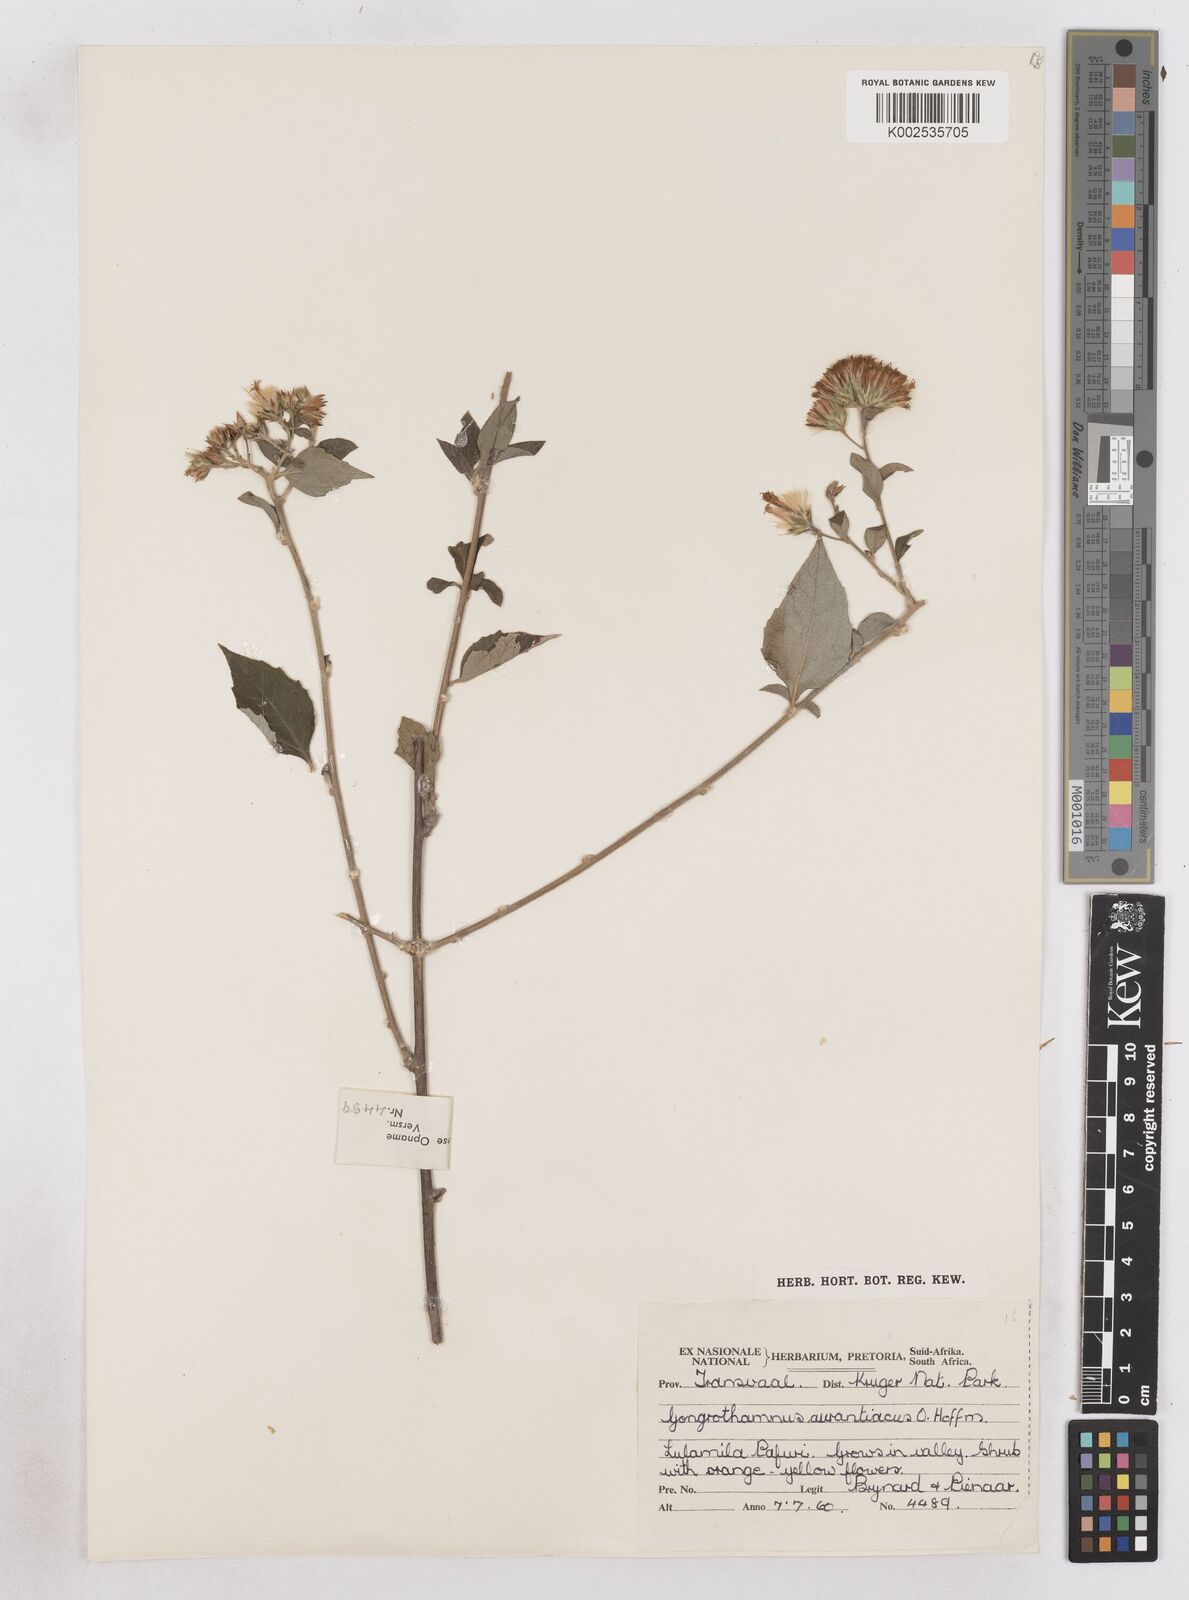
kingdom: Plantae
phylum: Tracheophyta
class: Magnoliopsida
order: Asterales
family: Asteraceae
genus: Distephanus
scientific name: Distephanus
